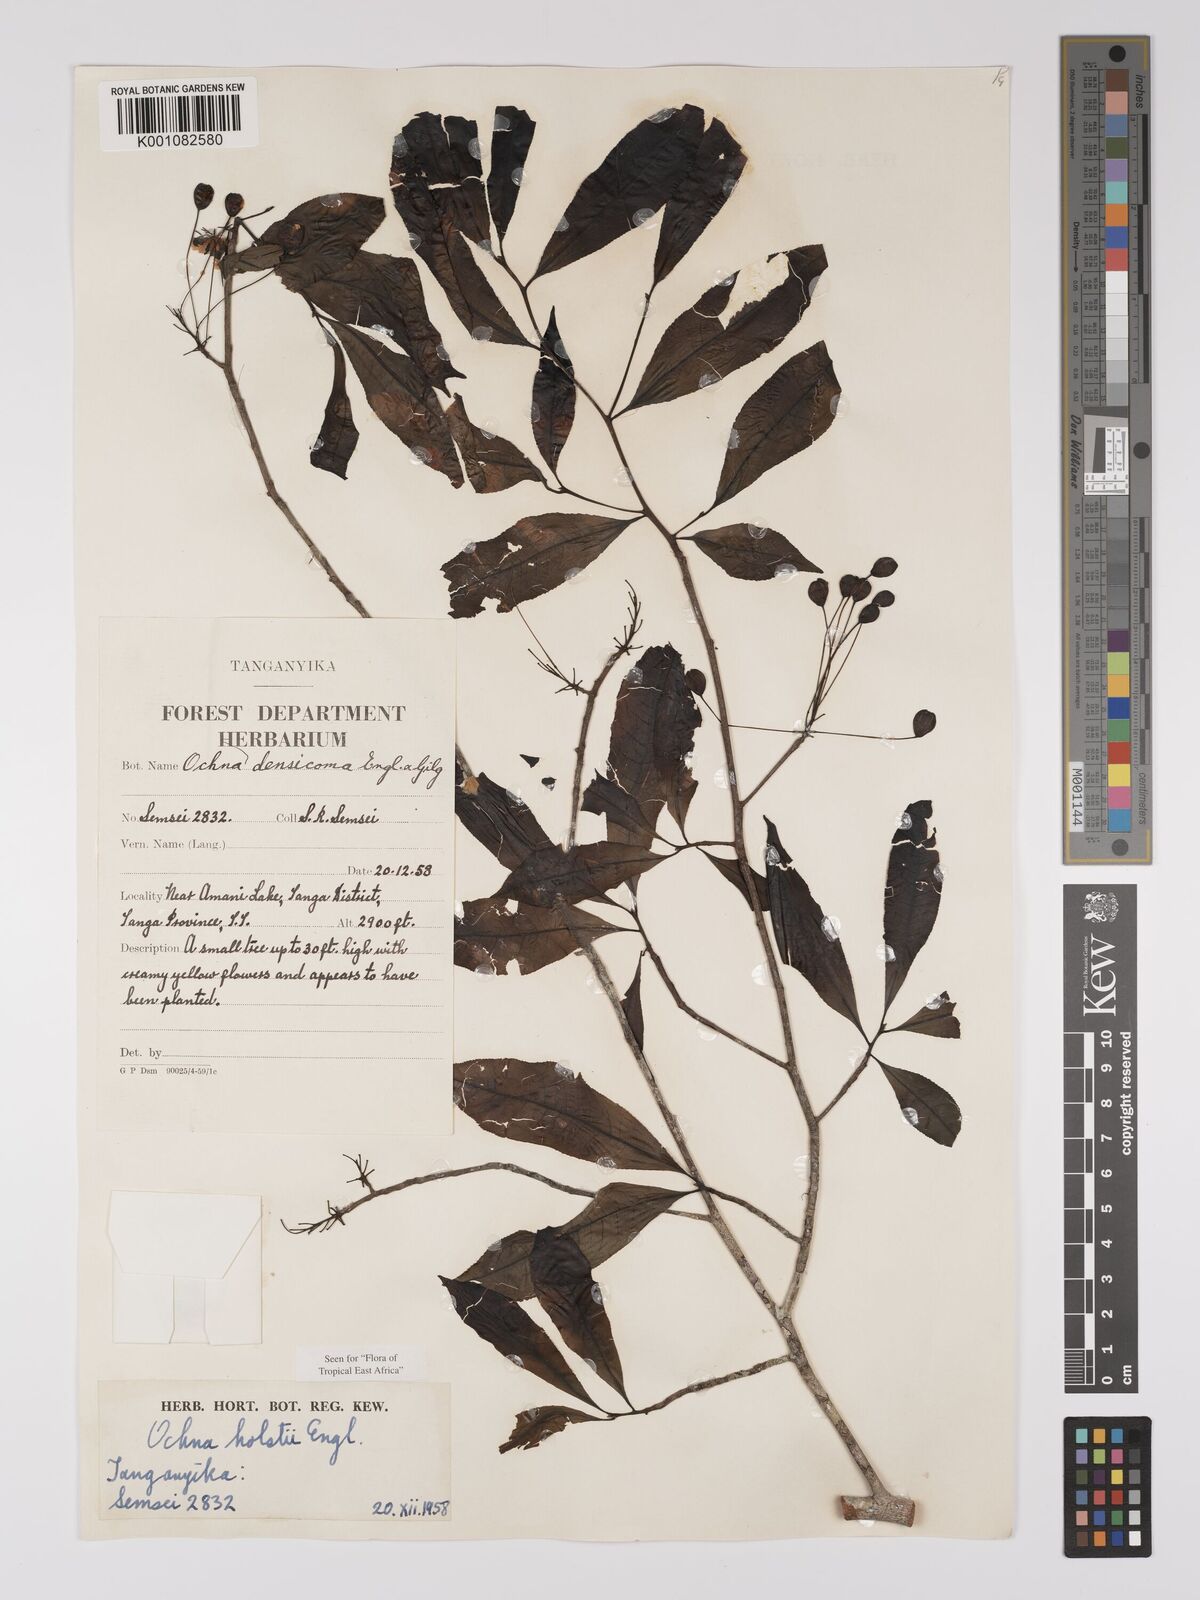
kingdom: Plantae
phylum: Tracheophyta
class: Magnoliopsida
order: Malpighiales
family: Ochnaceae
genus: Ochna
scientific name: Ochna holstii
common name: Red ironwood
